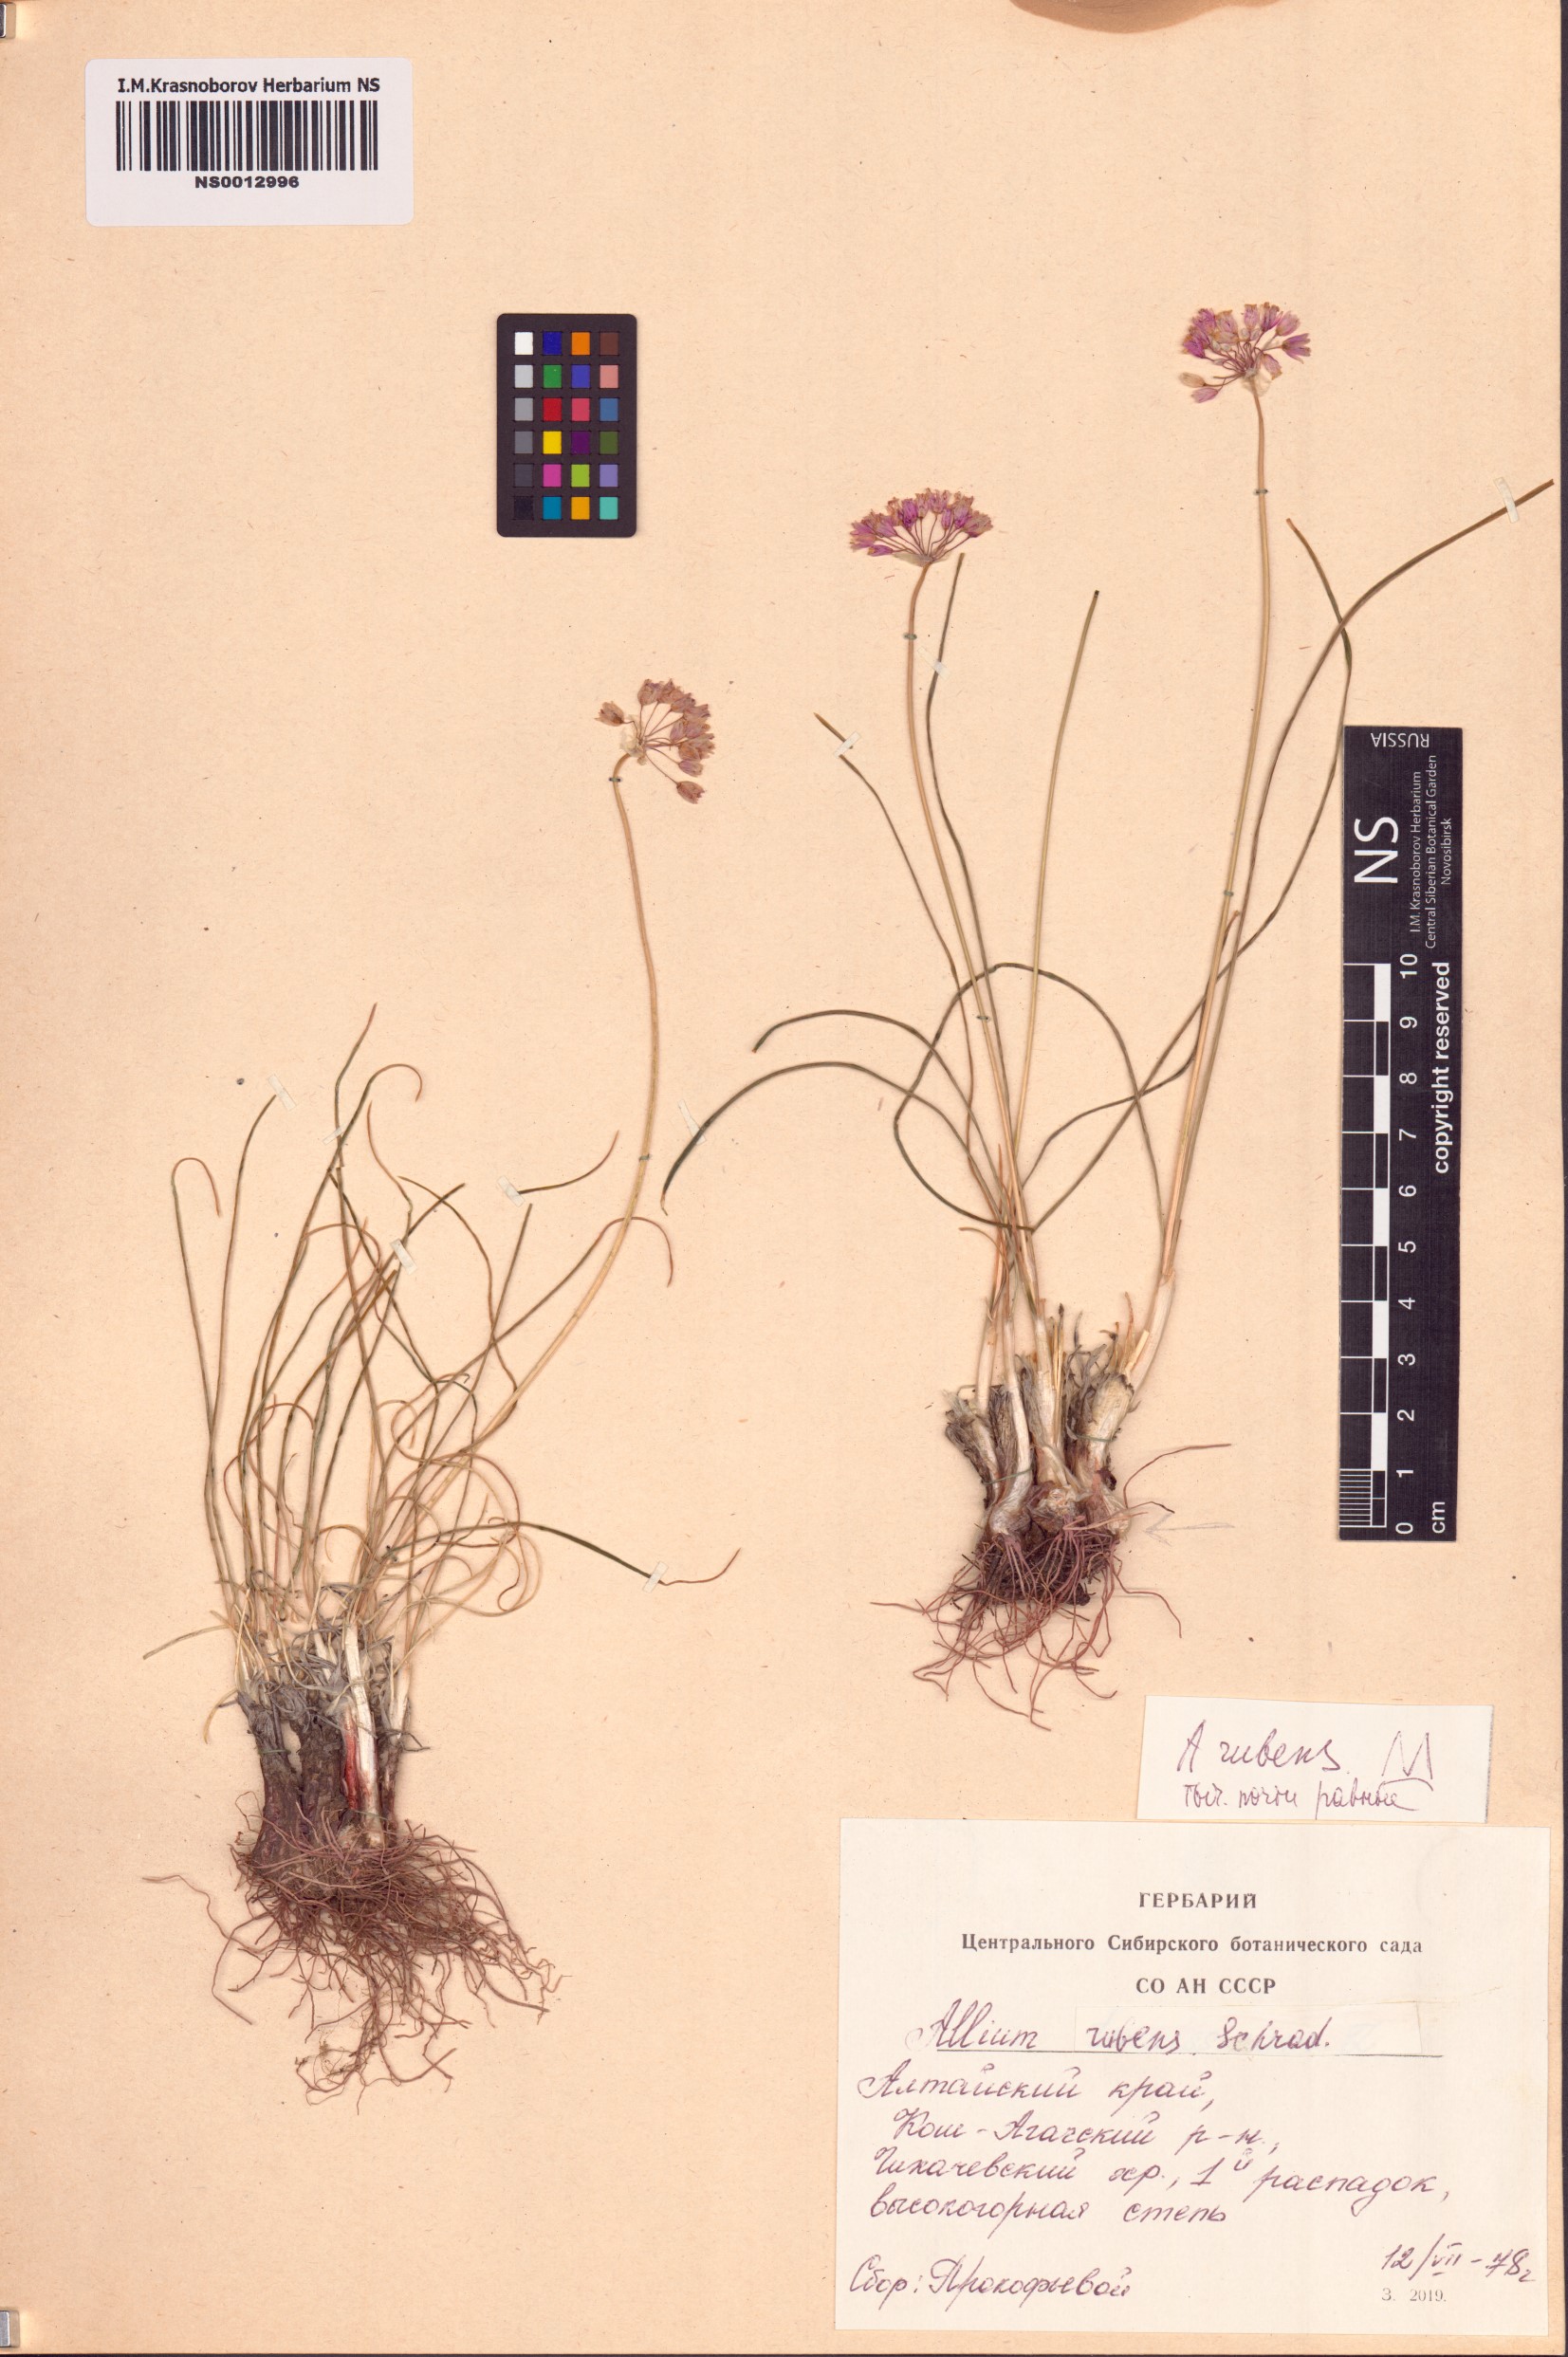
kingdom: Plantae
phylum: Tracheophyta
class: Liliopsida
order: Asparagales
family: Amaryllidaceae
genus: Allium
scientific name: Allium rubens
